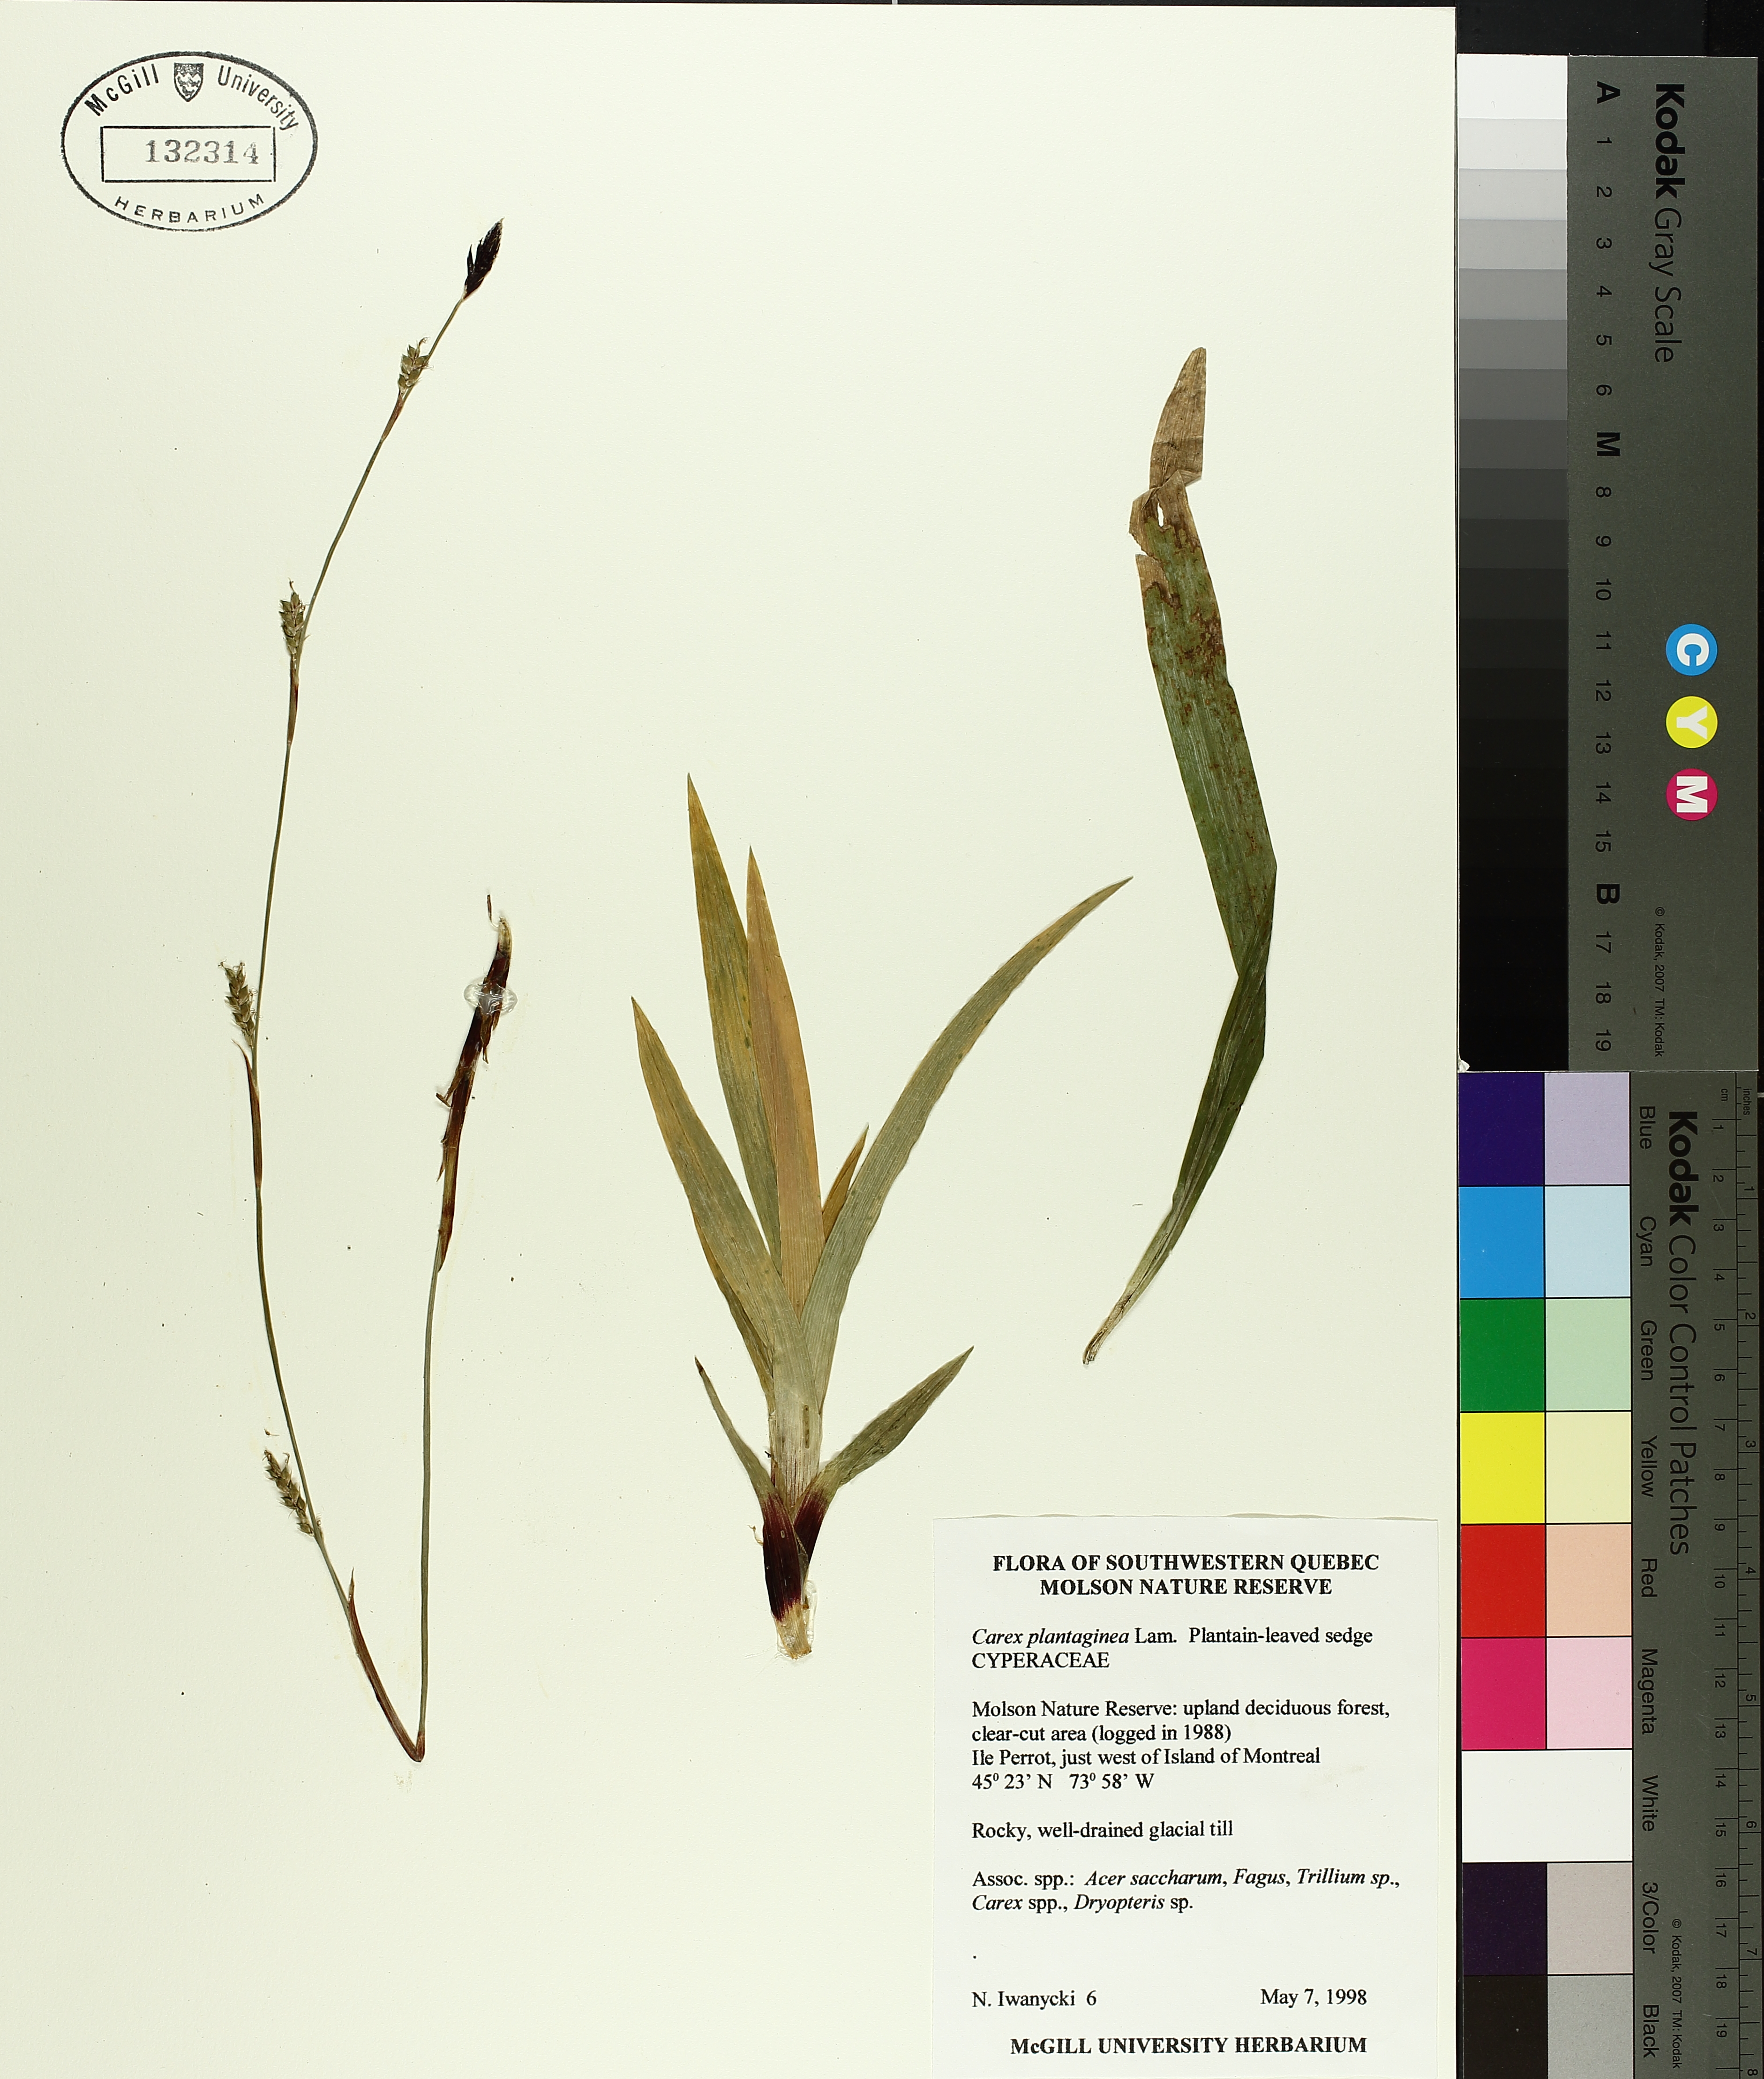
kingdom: Plantae
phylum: Tracheophyta
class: Liliopsida
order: Poales
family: Cyperaceae
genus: Carex
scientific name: Carex plantaginea
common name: Plantain-leaved sedge
